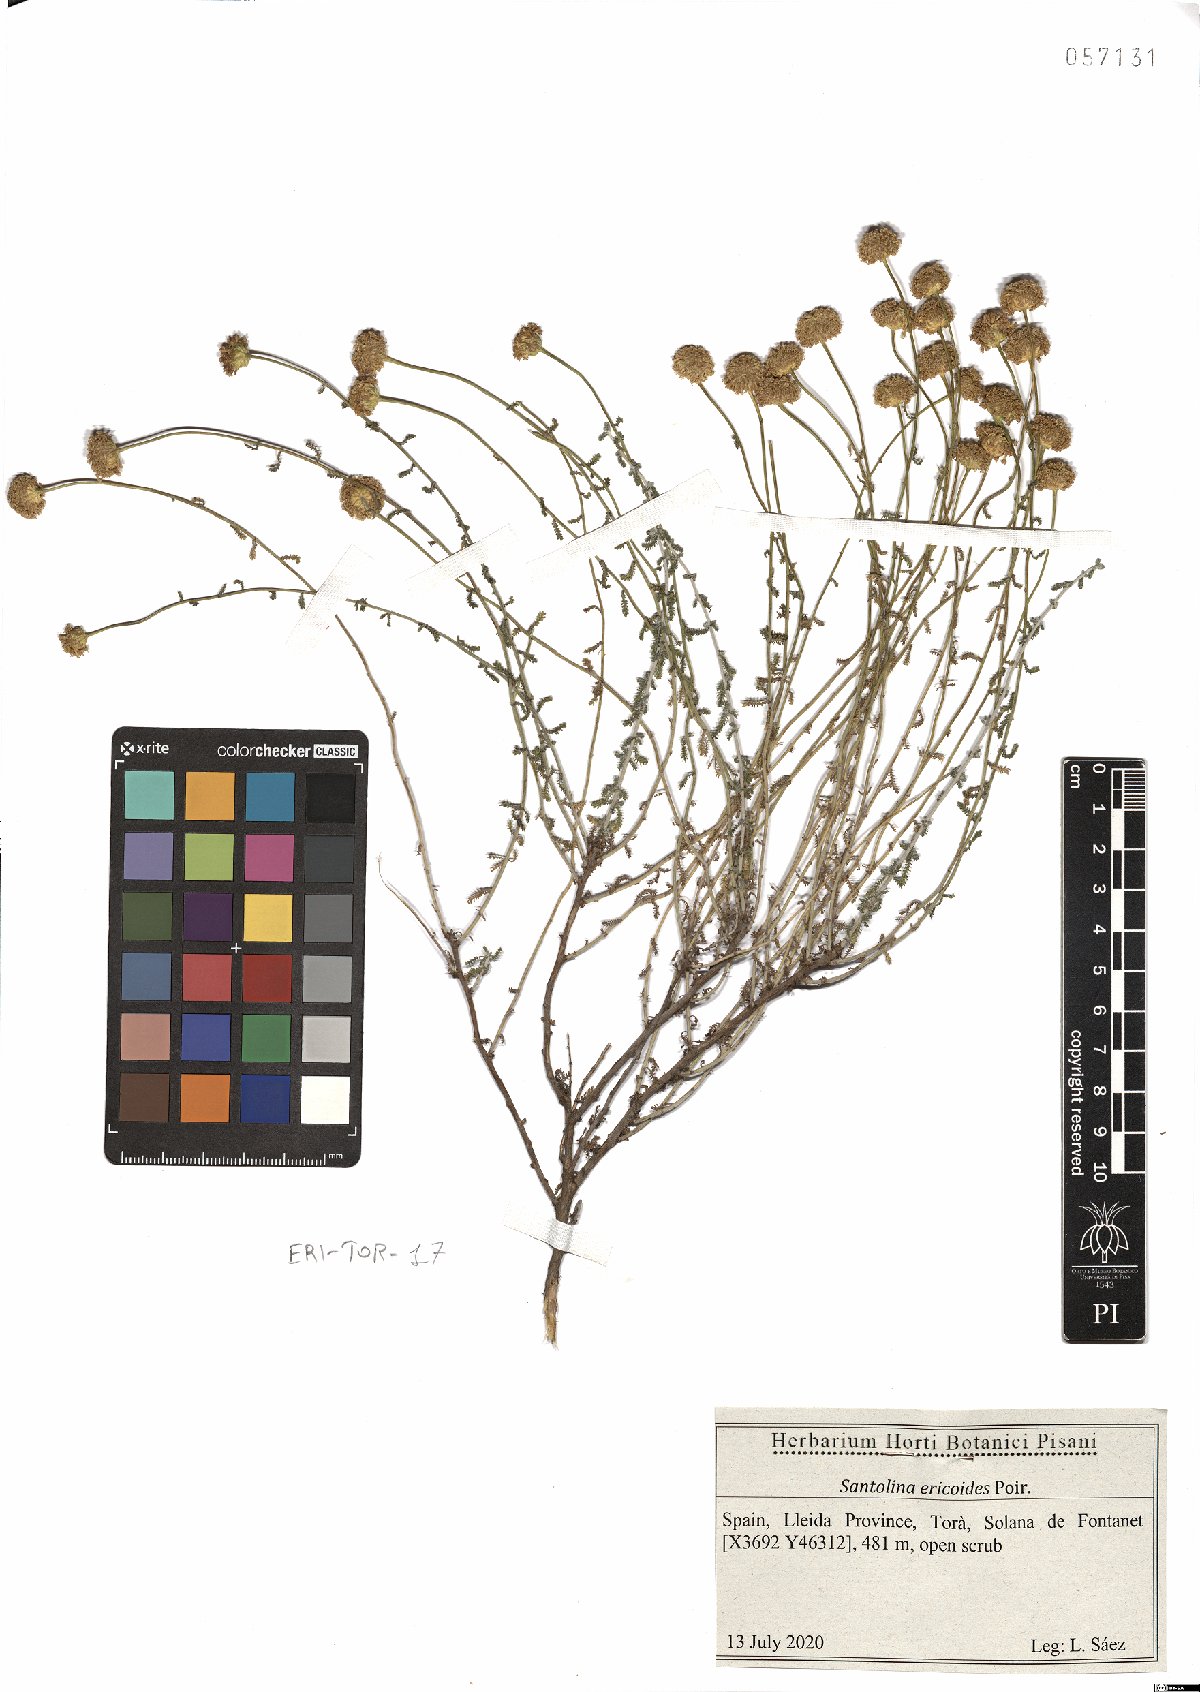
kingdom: Plantae
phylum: Tracheophyta
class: Magnoliopsida
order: Asterales
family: Asteraceae
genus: Santolina
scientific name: Santolina ericoides
